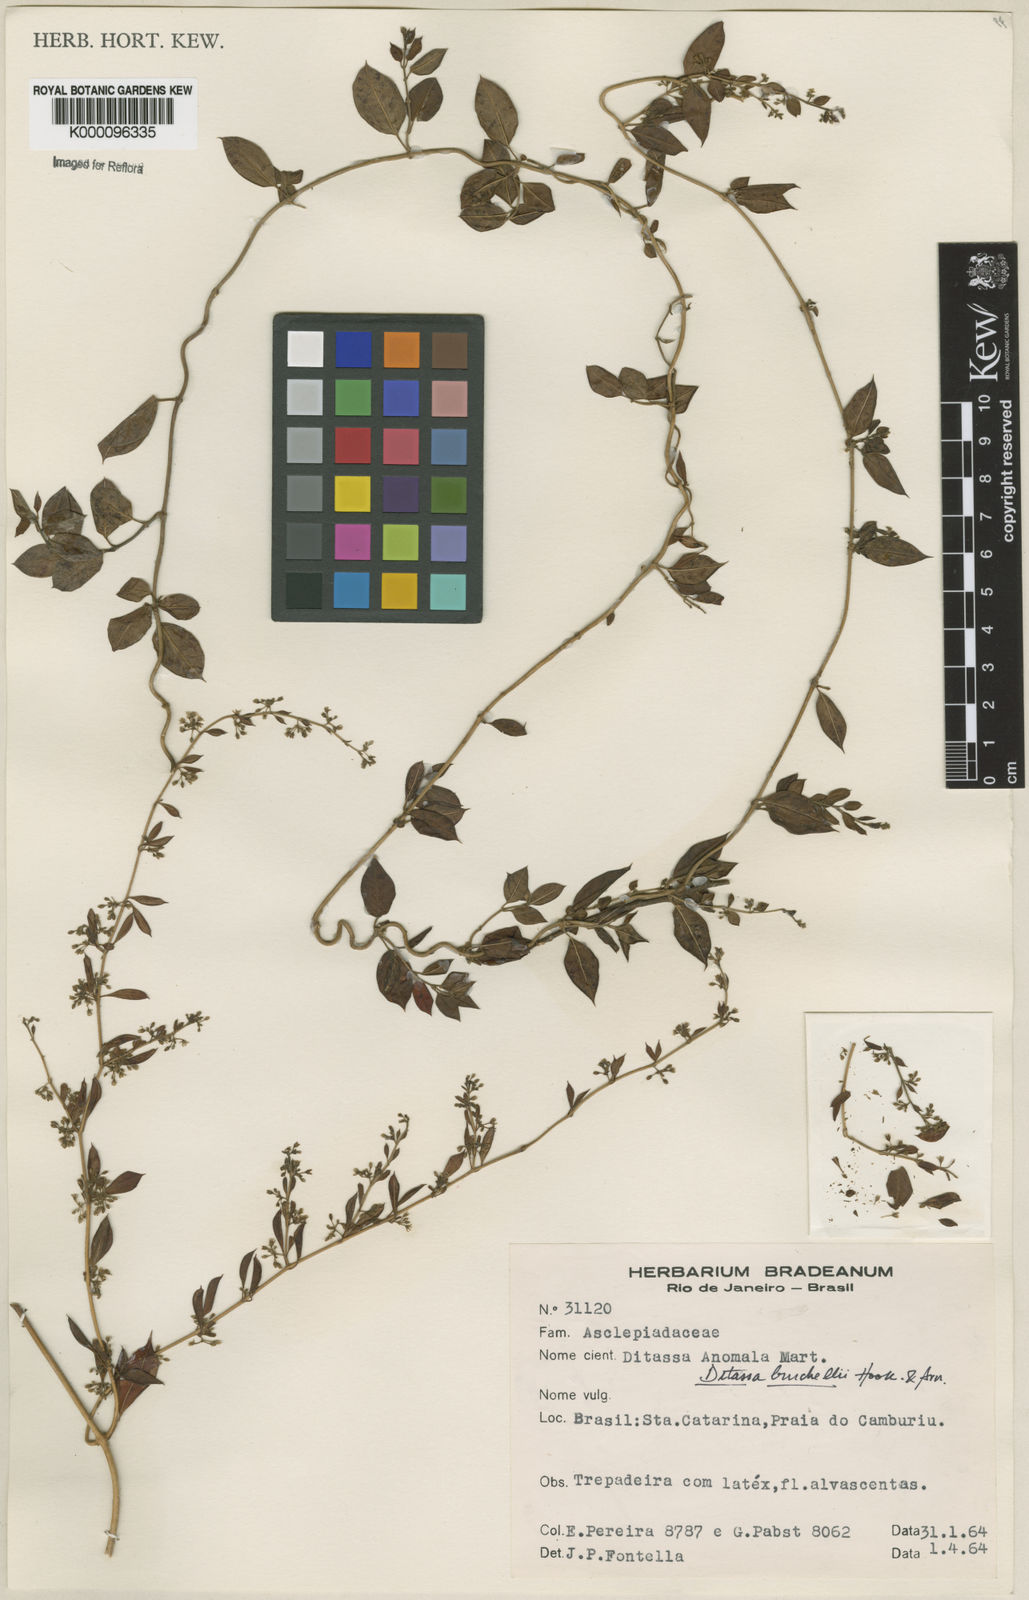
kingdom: Plantae
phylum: Tracheophyta
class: Magnoliopsida
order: Gentianales
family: Apocynaceae
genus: Metastelma
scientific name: Metastelma burchellii
